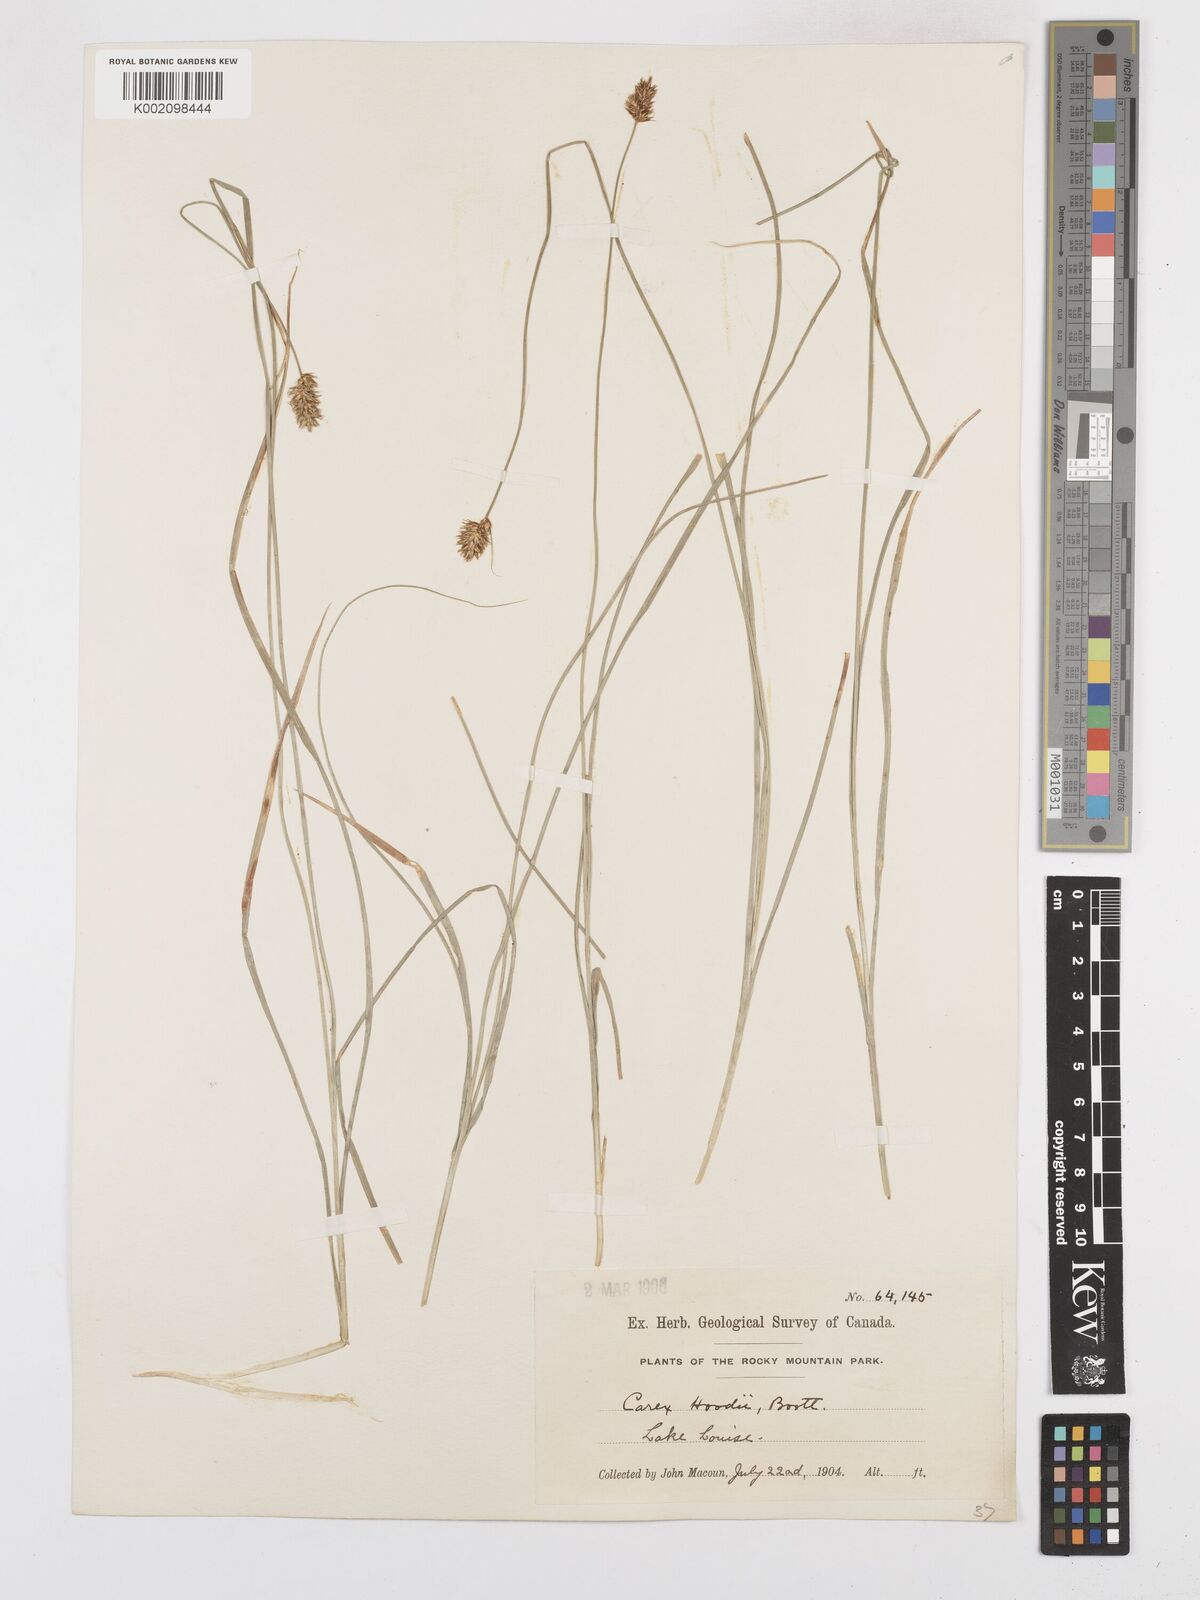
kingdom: Plantae
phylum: Tracheophyta
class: Liliopsida
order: Poales
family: Cyperaceae
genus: Carex
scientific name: Carex hoodii
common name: Hood's sedge
